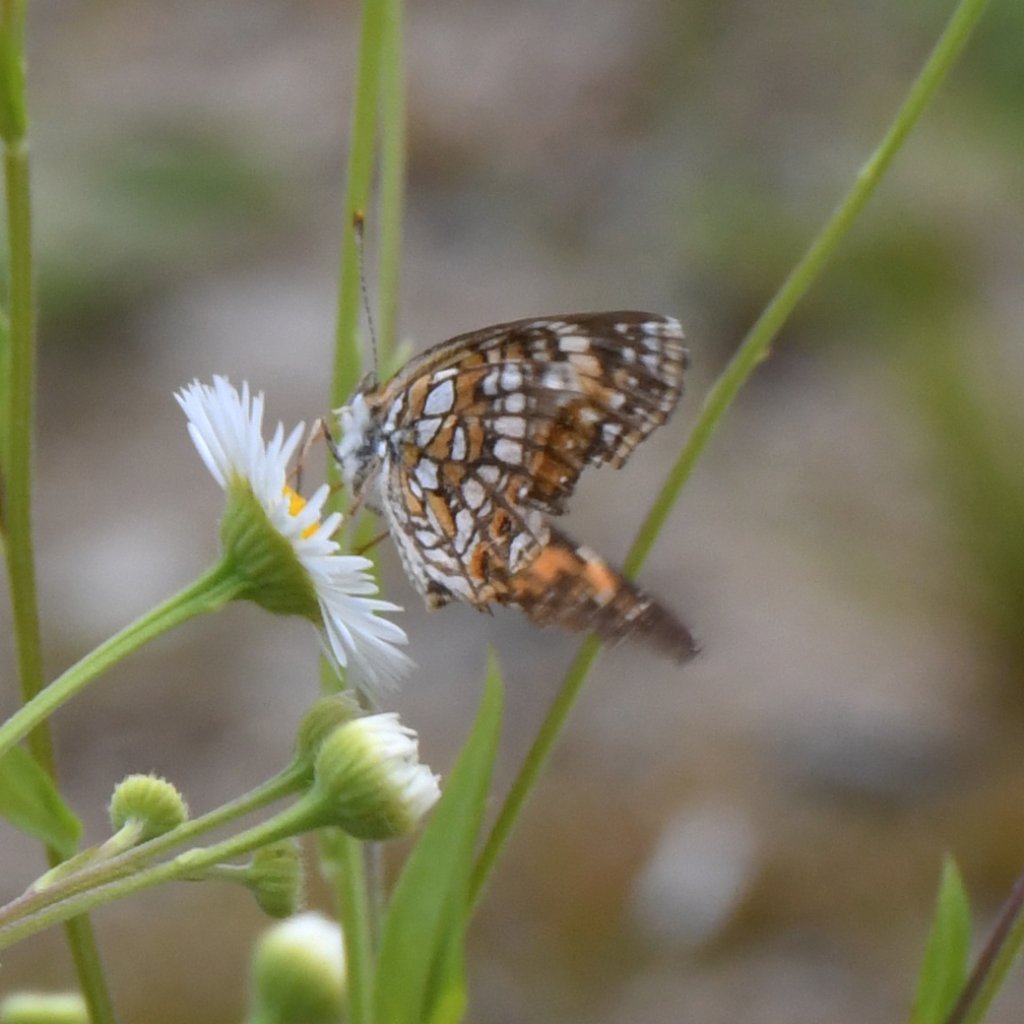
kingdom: Animalia
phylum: Arthropoda
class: Insecta
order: Lepidoptera
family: Nymphalidae
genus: Chlosyne
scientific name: Chlosyne harrisii
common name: Harris's Checkerspot
